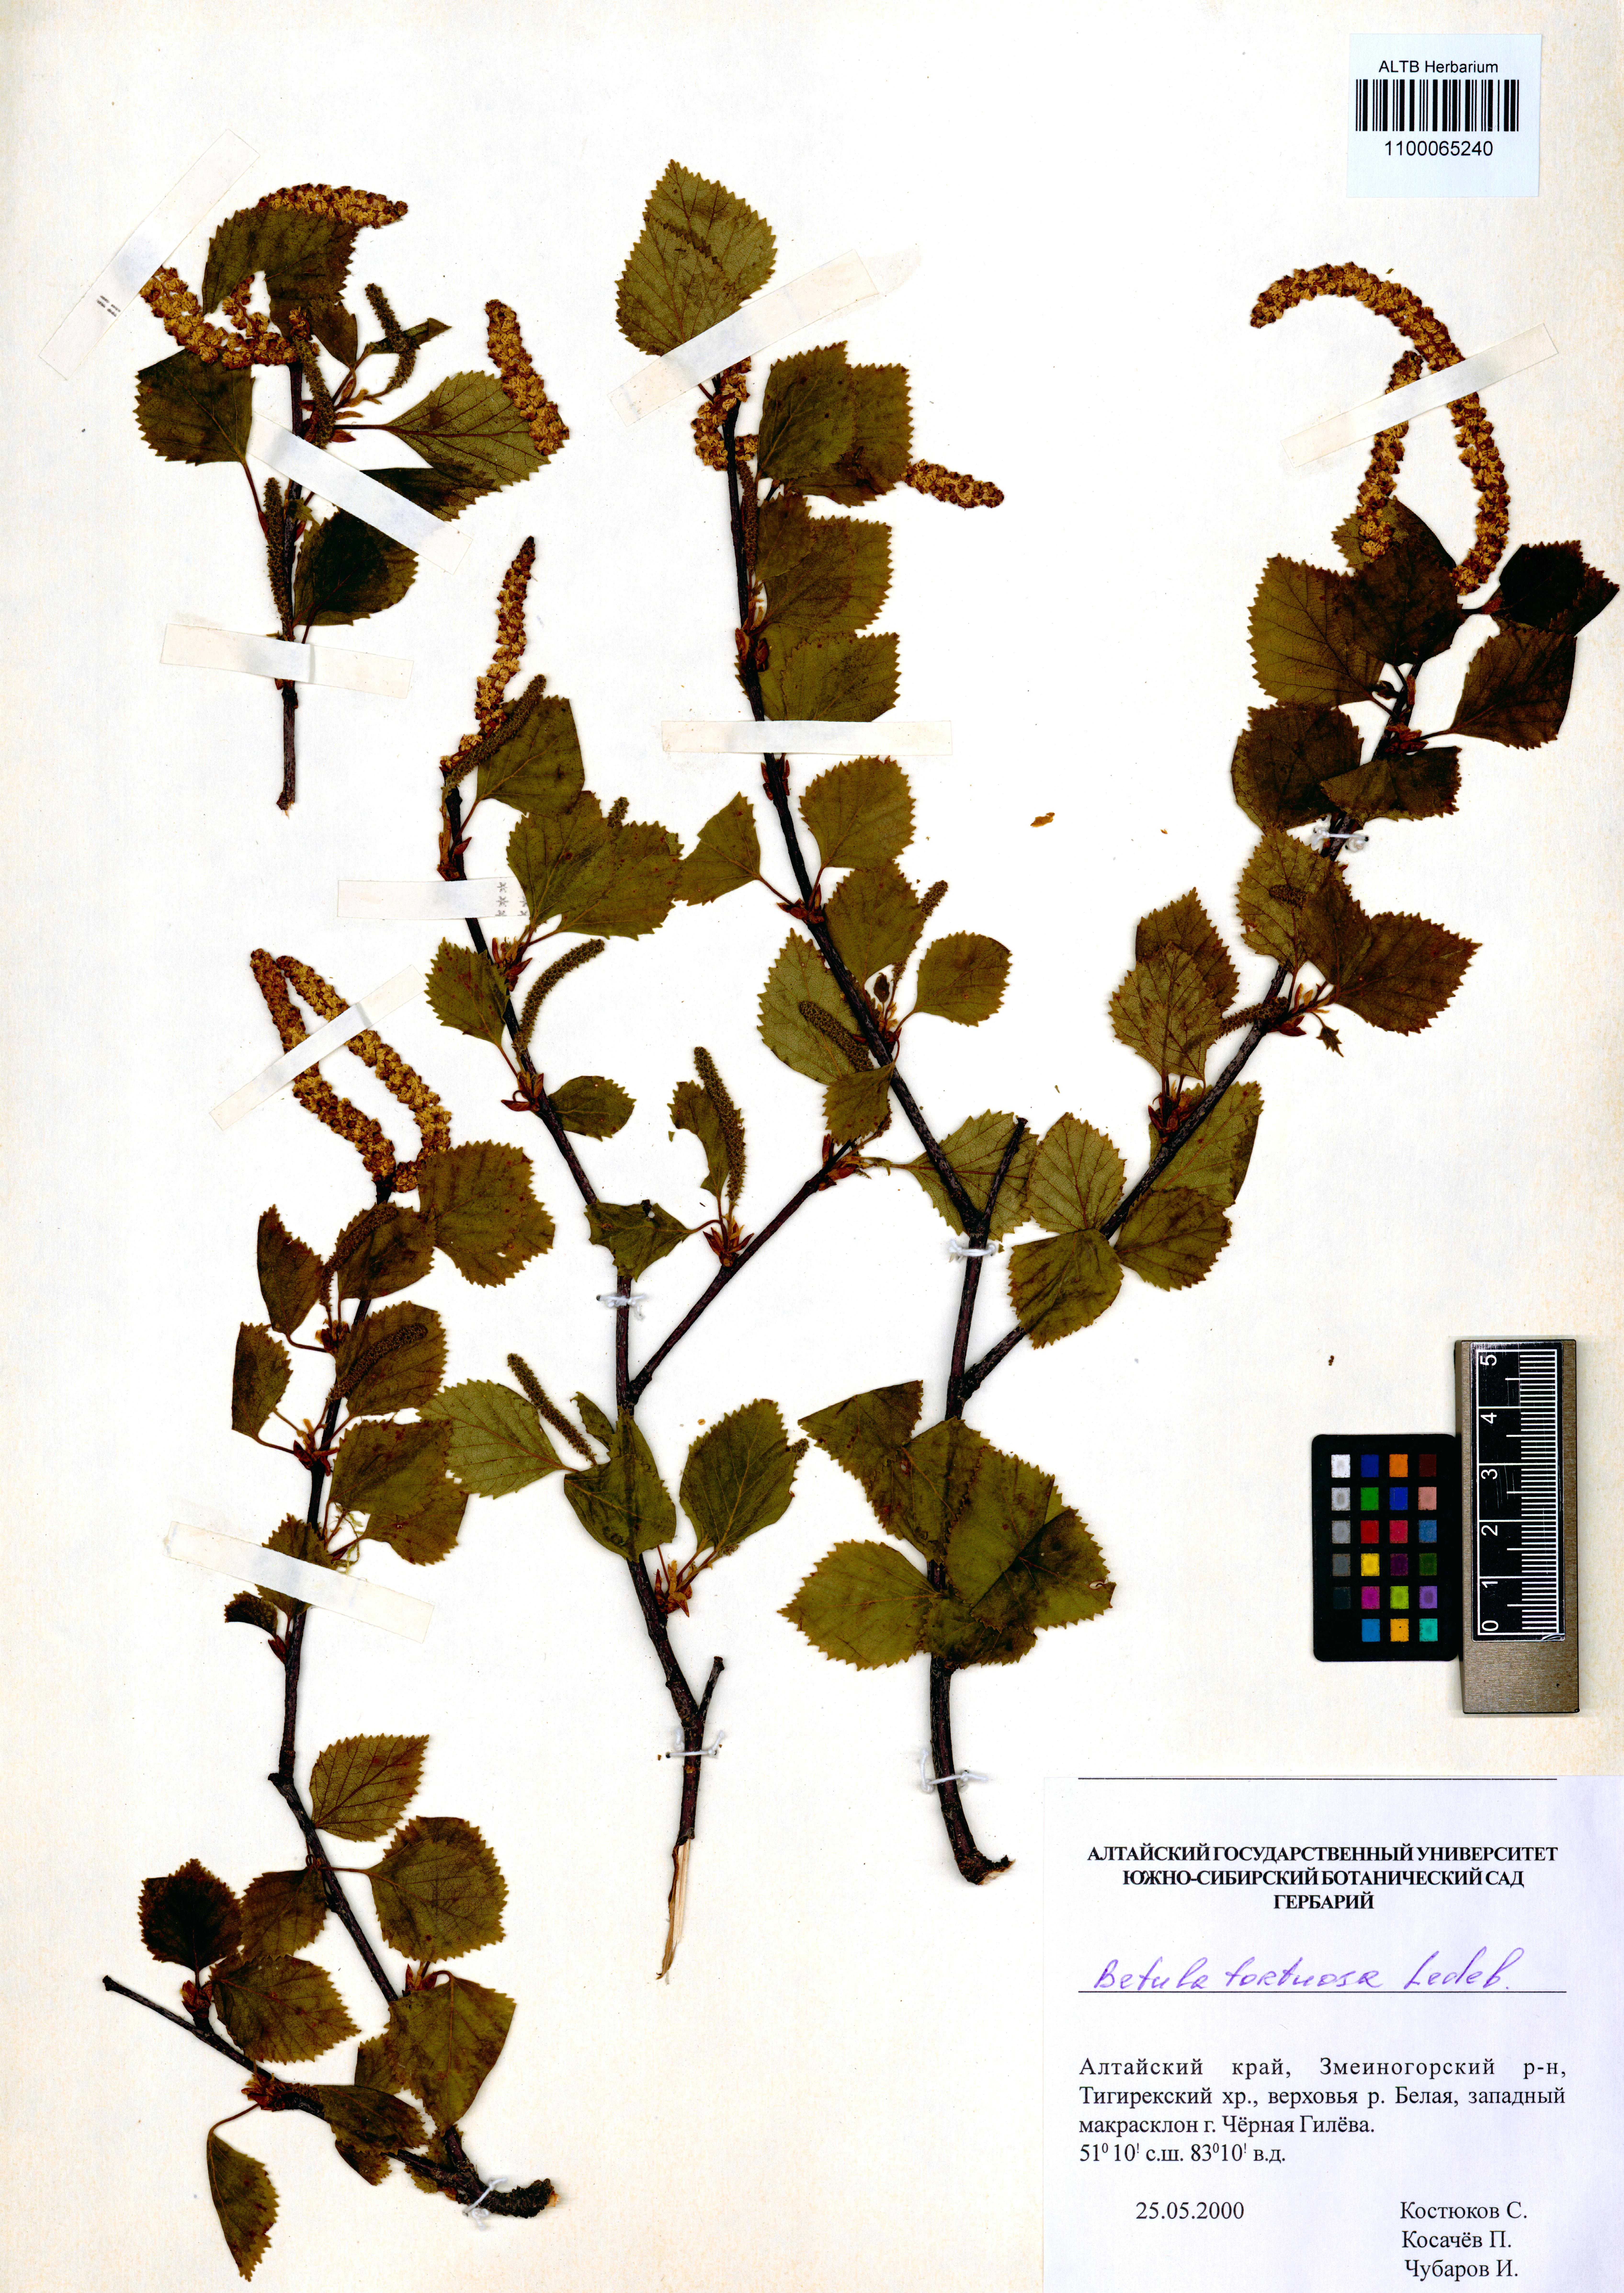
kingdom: Plantae
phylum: Tracheophyta
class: Magnoliopsida
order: Fagales
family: Betulaceae
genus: Betula
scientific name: Betula pubescens
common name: Downy birch
